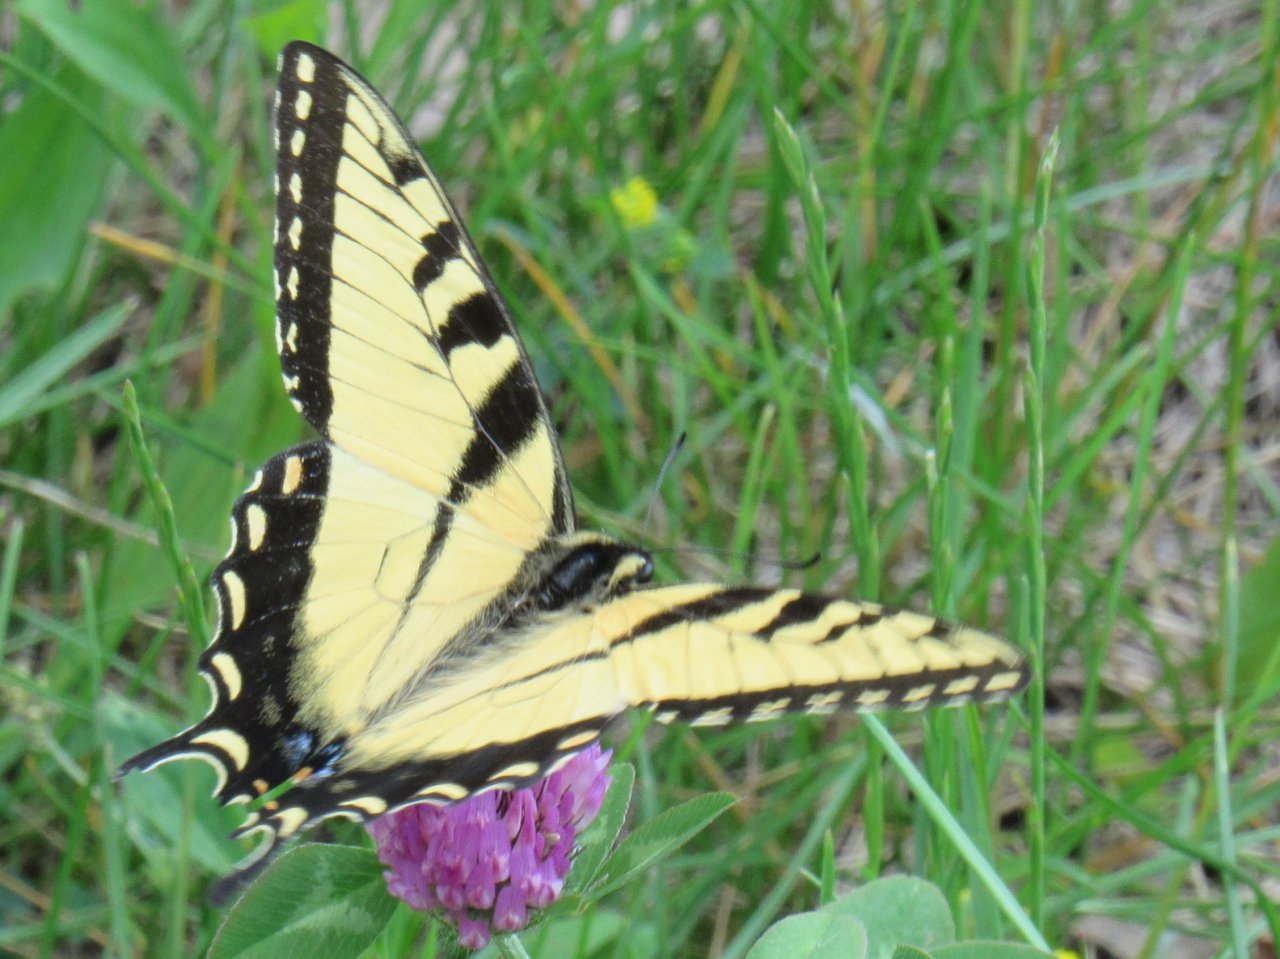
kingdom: Animalia
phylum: Arthropoda
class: Insecta
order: Lepidoptera
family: Papilionidae
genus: Pterourus
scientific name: Pterourus glaucus
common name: Eastern Tiger Swallowtail
